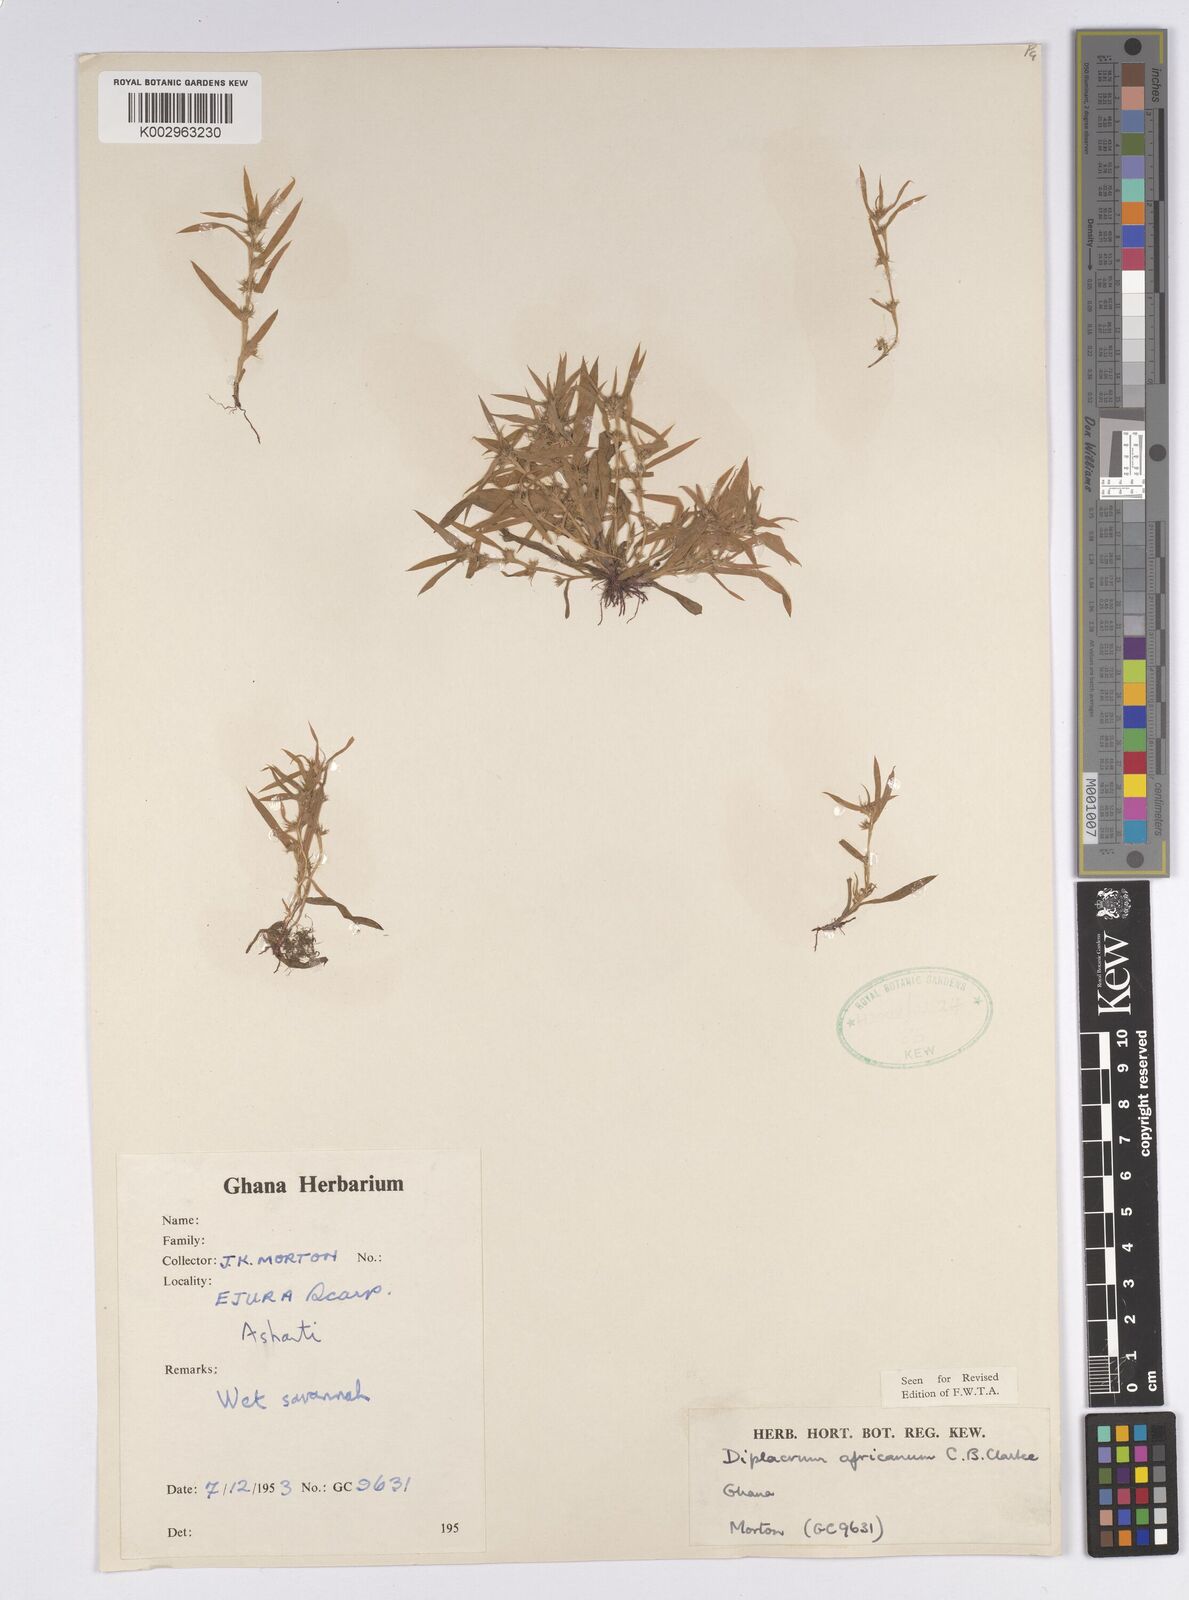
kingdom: Plantae
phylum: Tracheophyta
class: Liliopsida
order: Poales
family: Cyperaceae
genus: Diplacrum
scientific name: Diplacrum africanum
